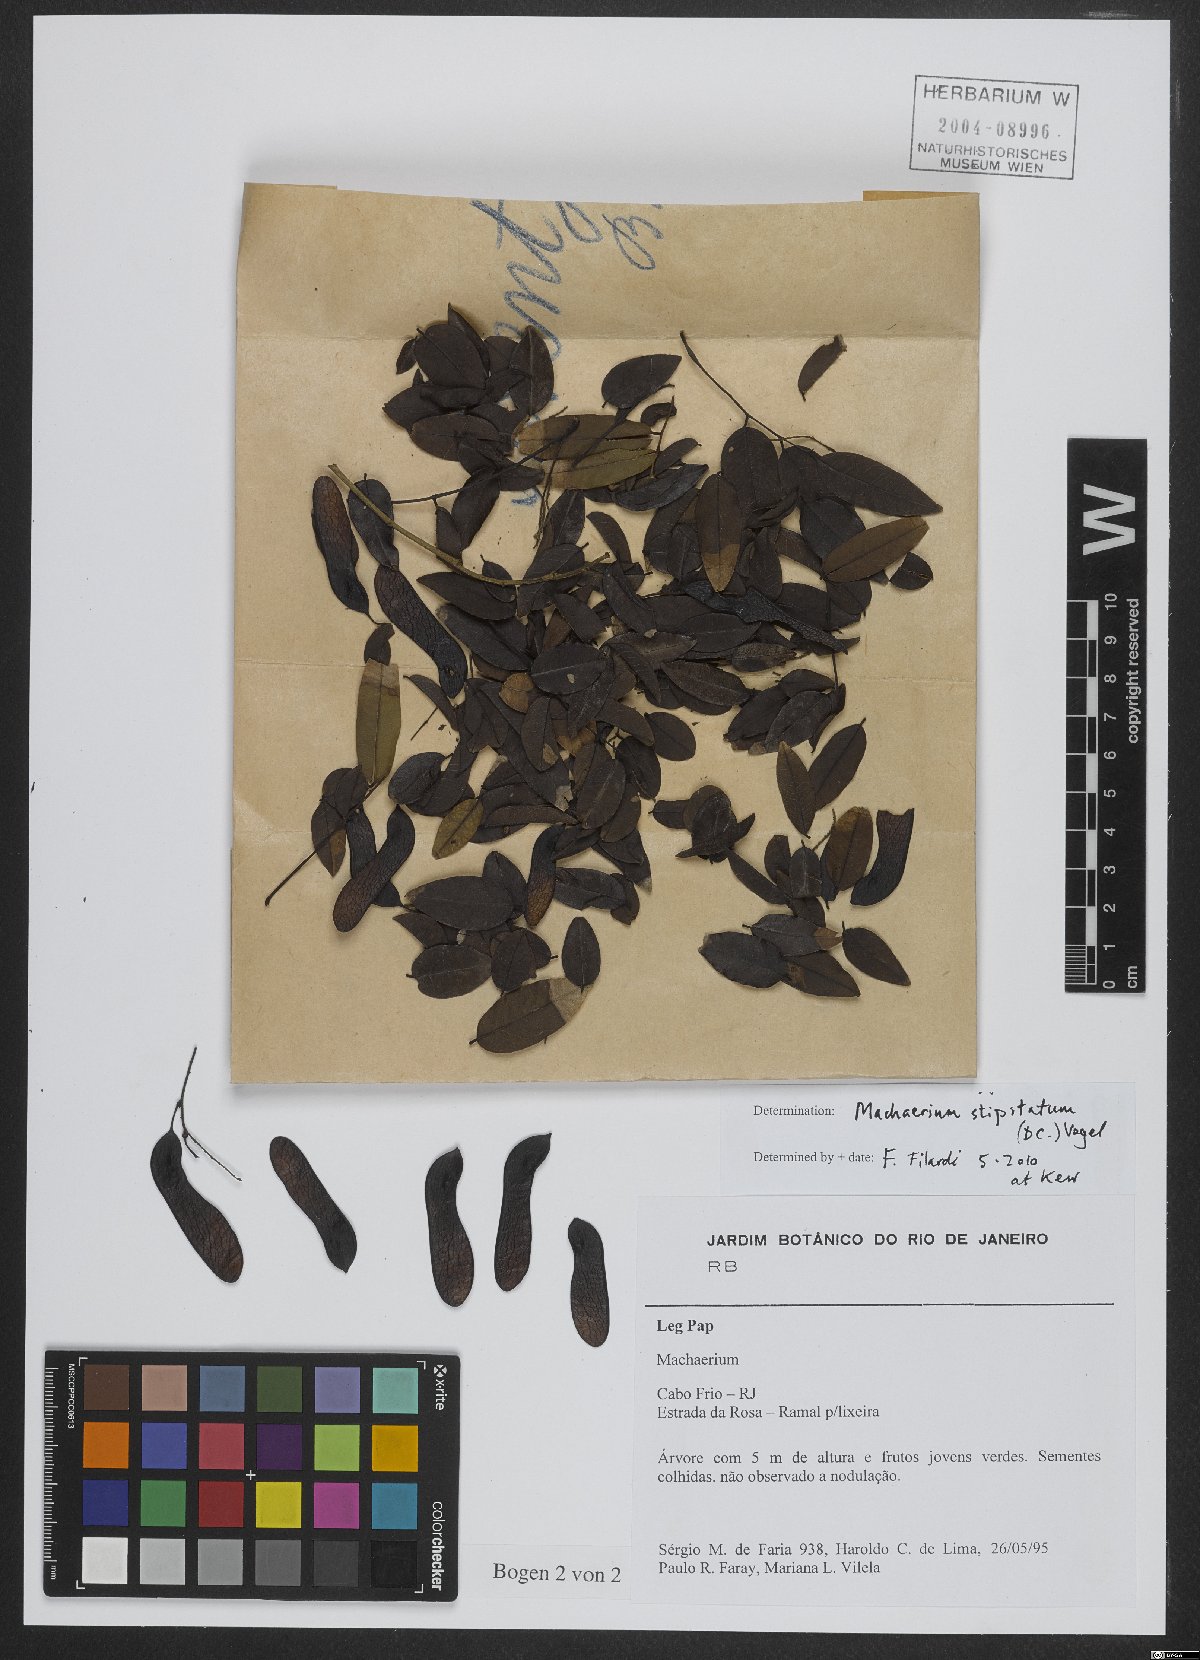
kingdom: Plantae
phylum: Tracheophyta
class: Magnoliopsida
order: Fabales
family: Fabaceae
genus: Machaerium
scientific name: Machaerium stipitatum
